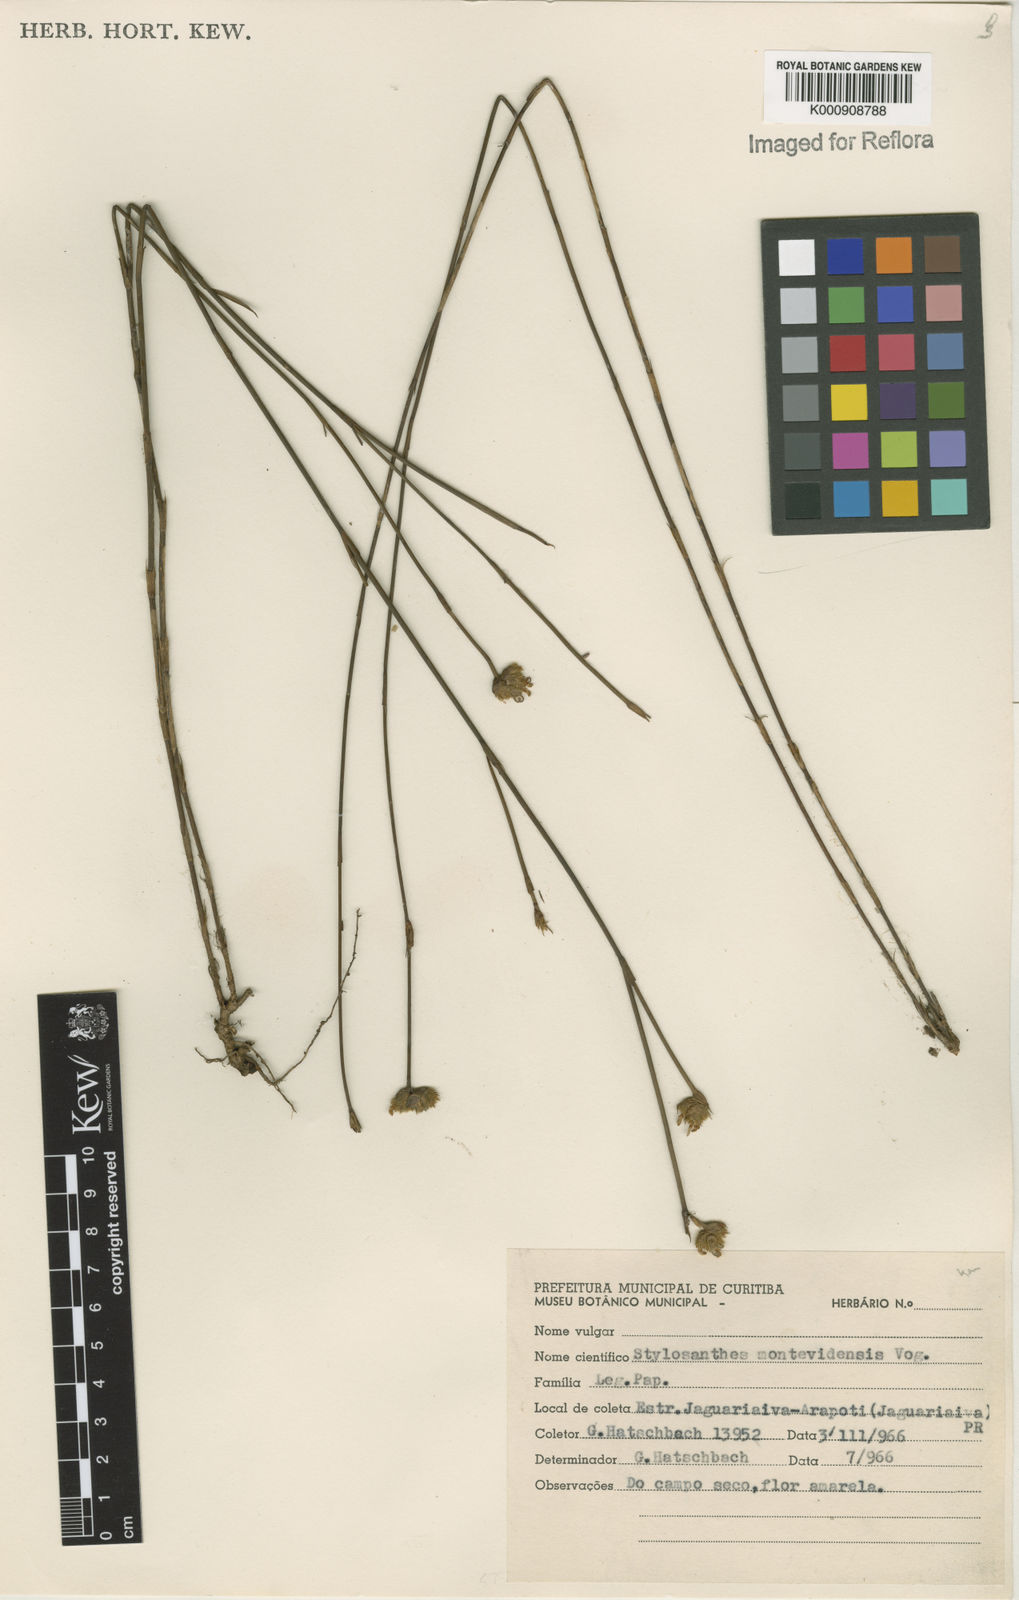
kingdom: Plantae
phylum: Tracheophyta
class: Magnoliopsida
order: Fabales
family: Fabaceae
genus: Stylosanthes
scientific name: Stylosanthes montevidensis
